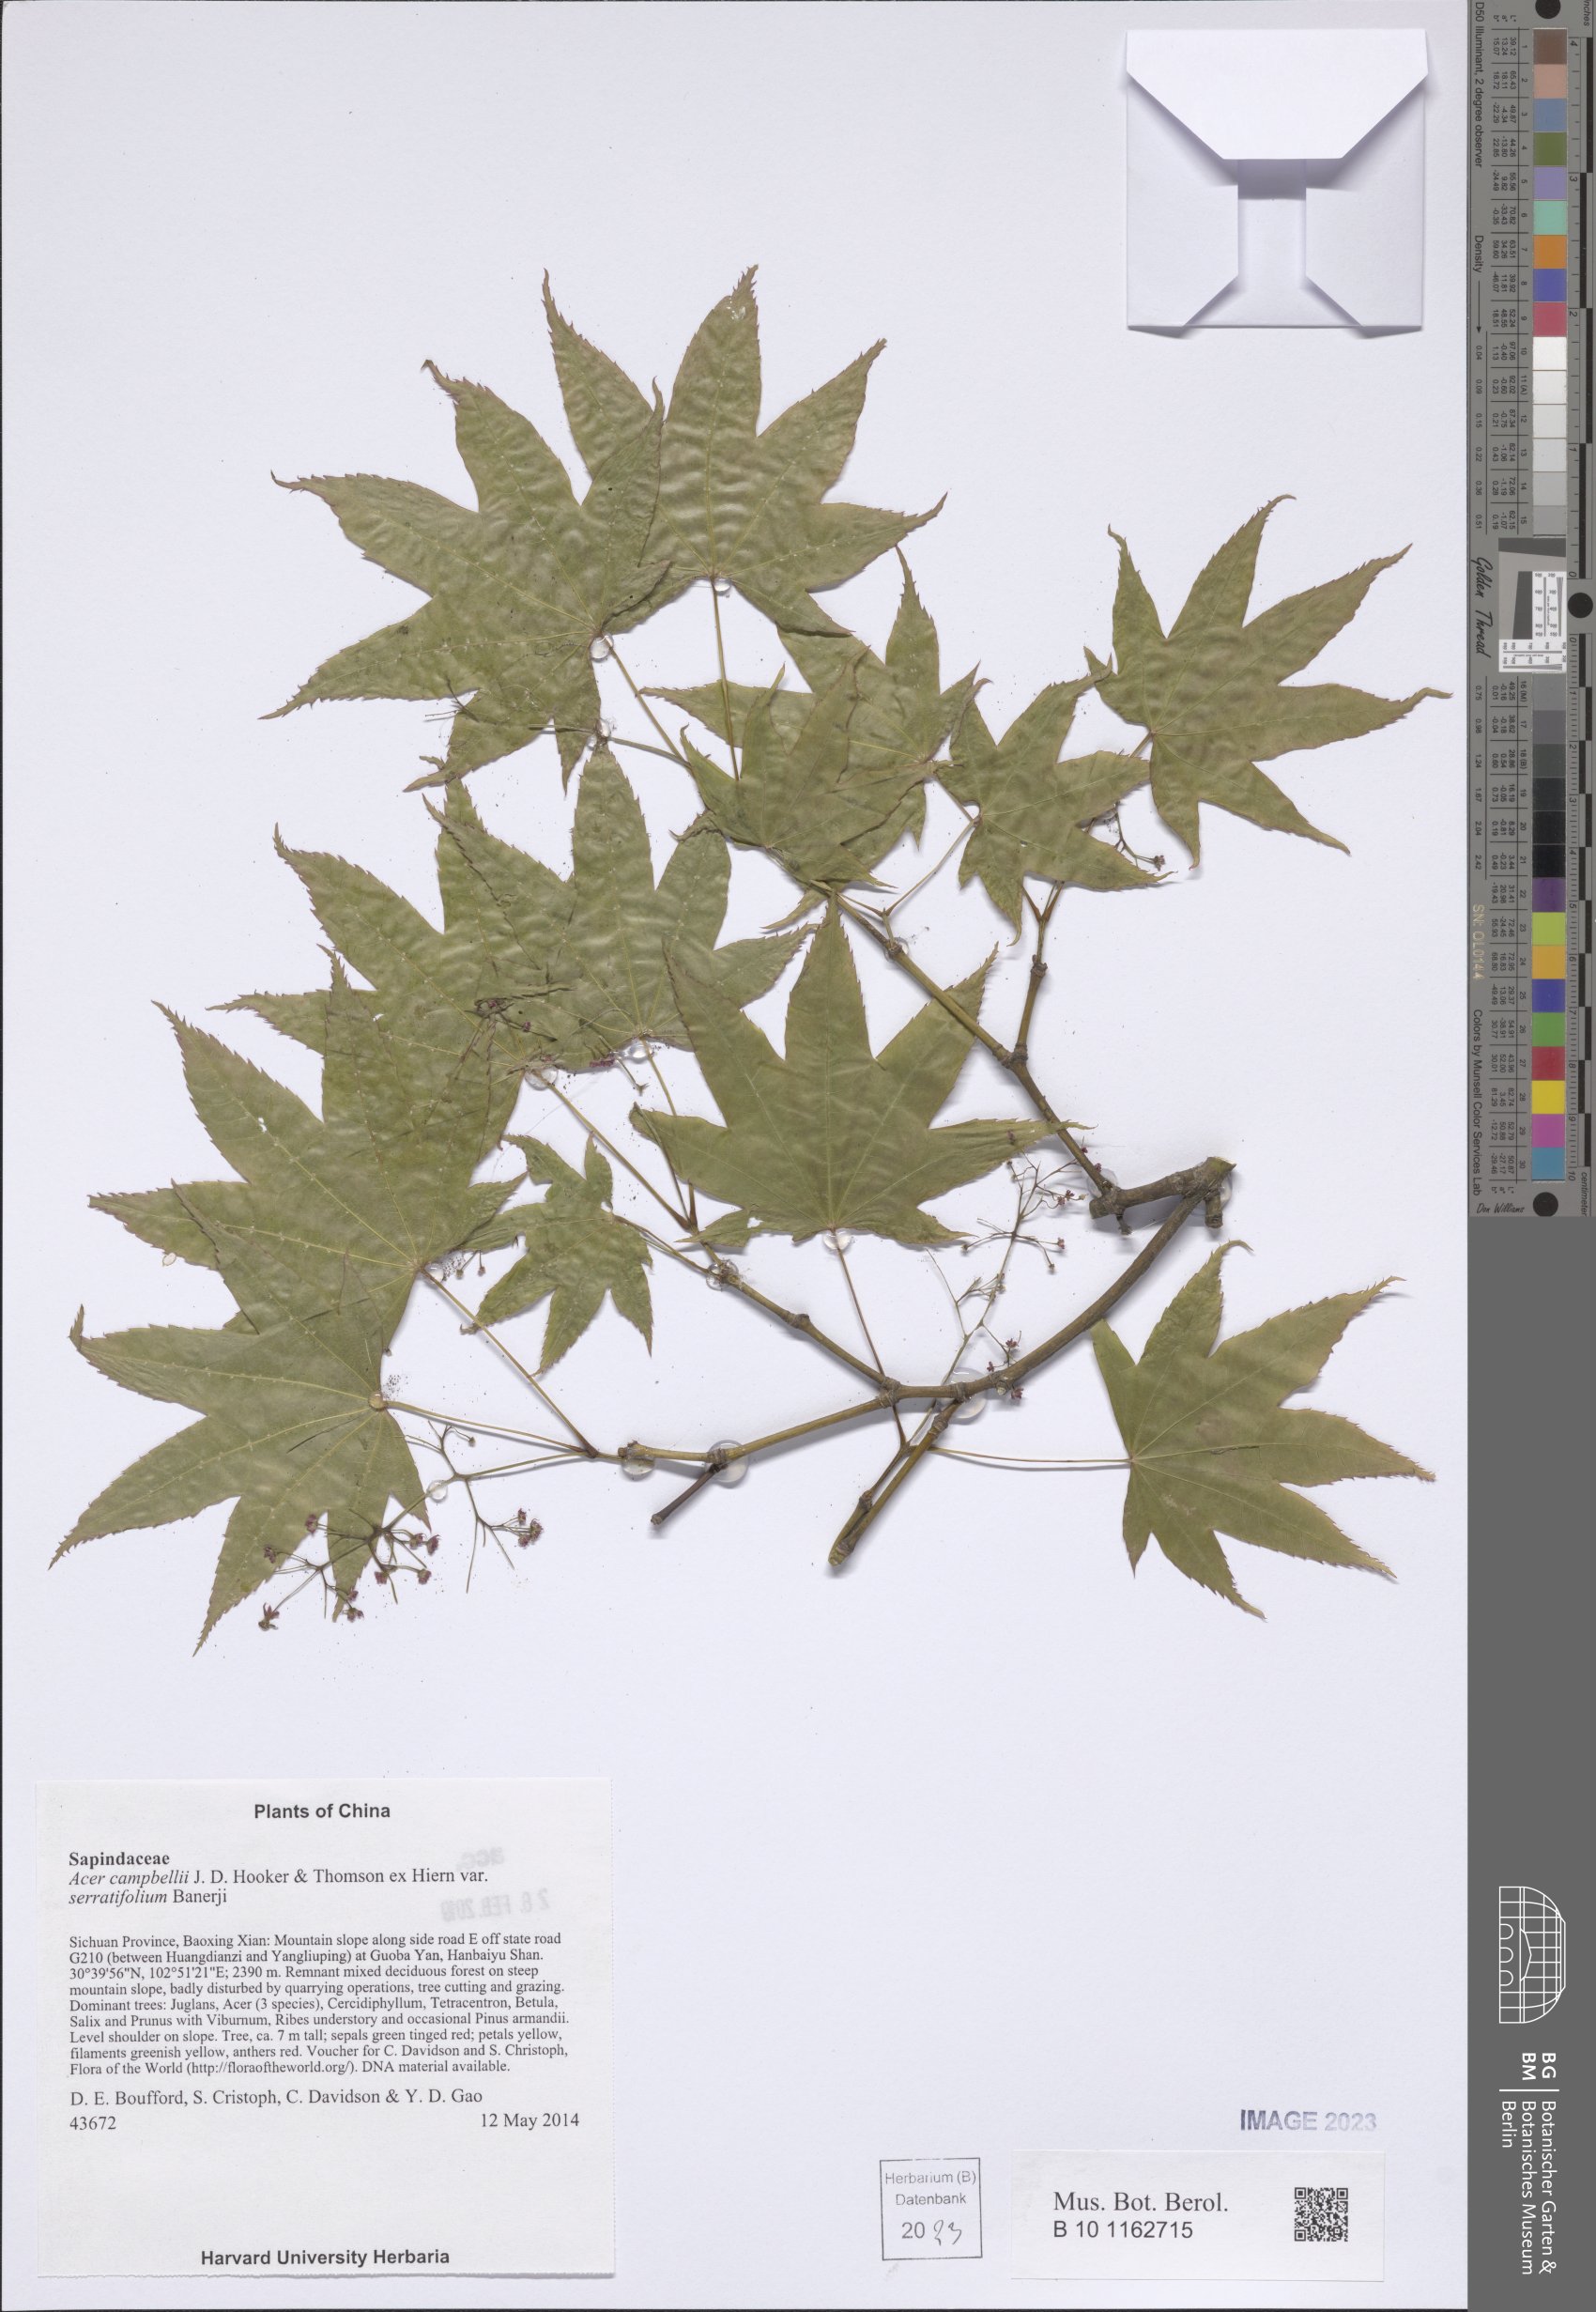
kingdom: Plantae
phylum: Tracheophyta
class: Magnoliopsida
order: Sapindales
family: Sapindaceae
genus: Acer
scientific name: Acer campbellii
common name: Campbell's maple
